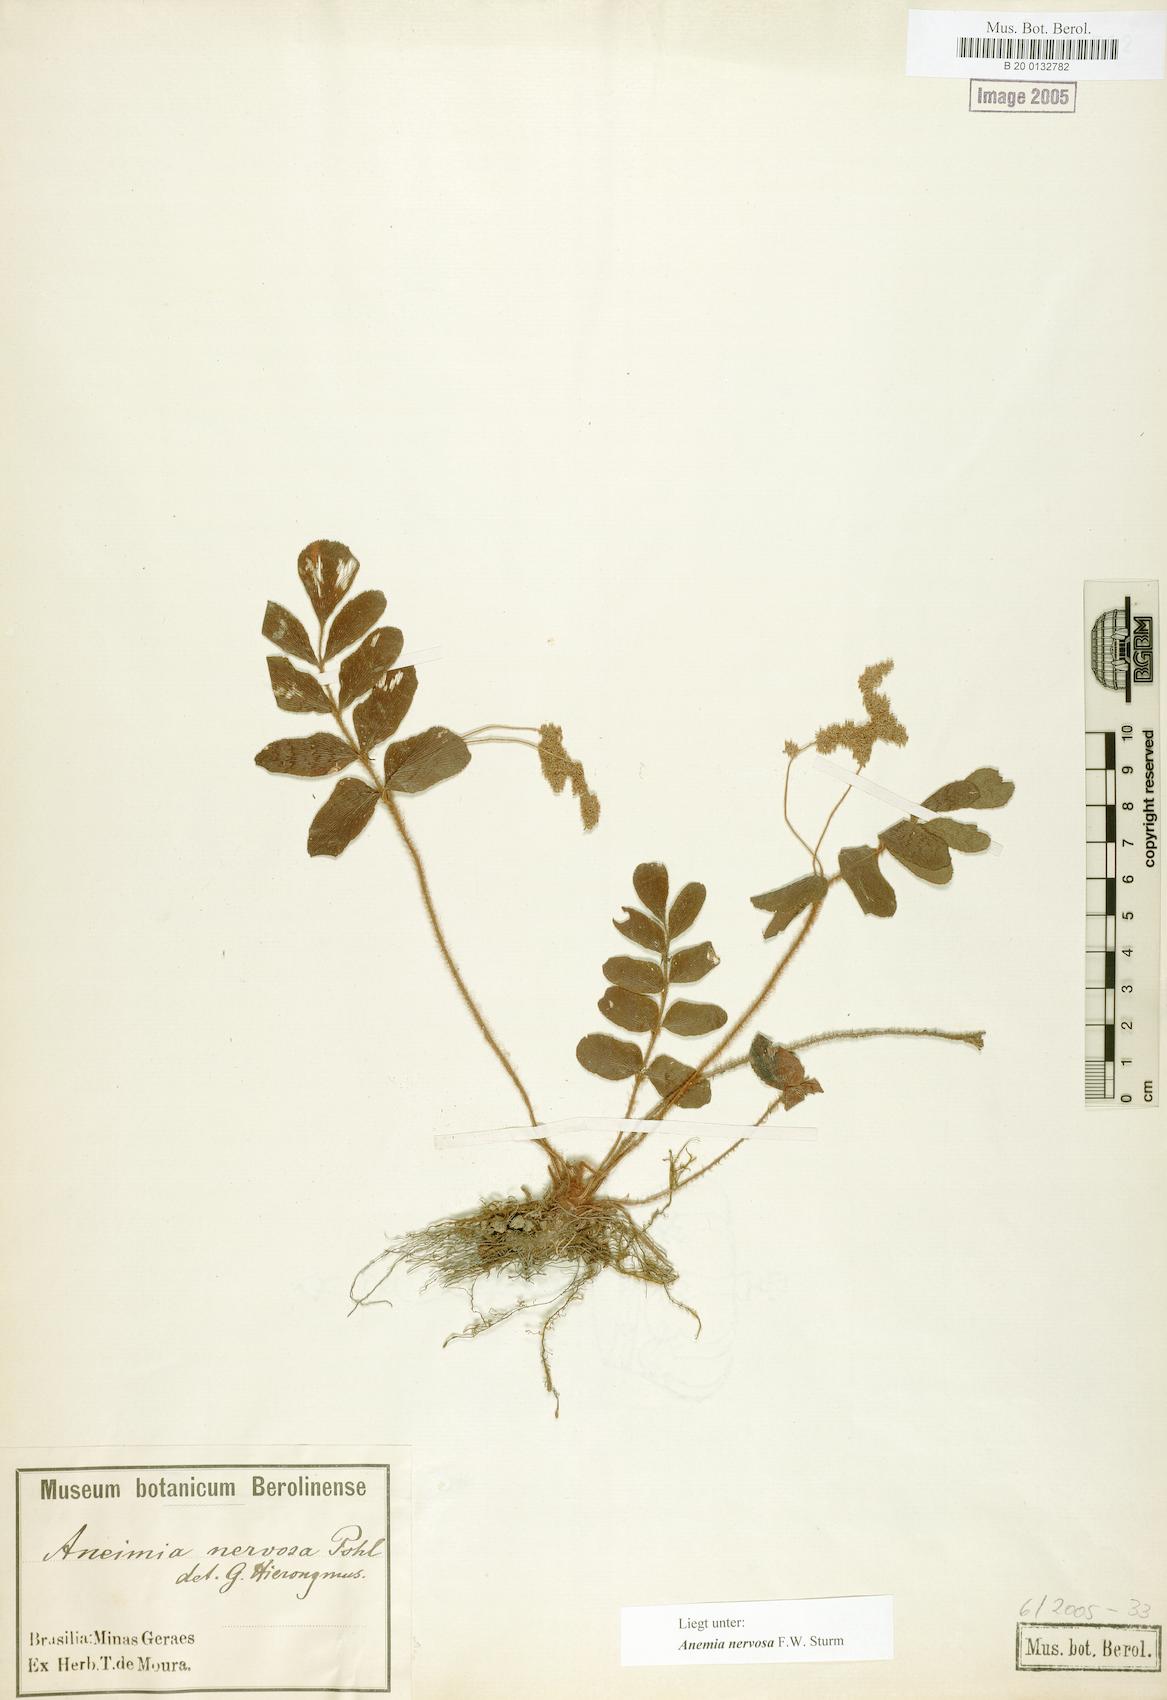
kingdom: Plantae
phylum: Tracheophyta
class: Polypodiopsida
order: Schizaeales
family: Anemiaceae
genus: Anemia
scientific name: Anemia nervosa
